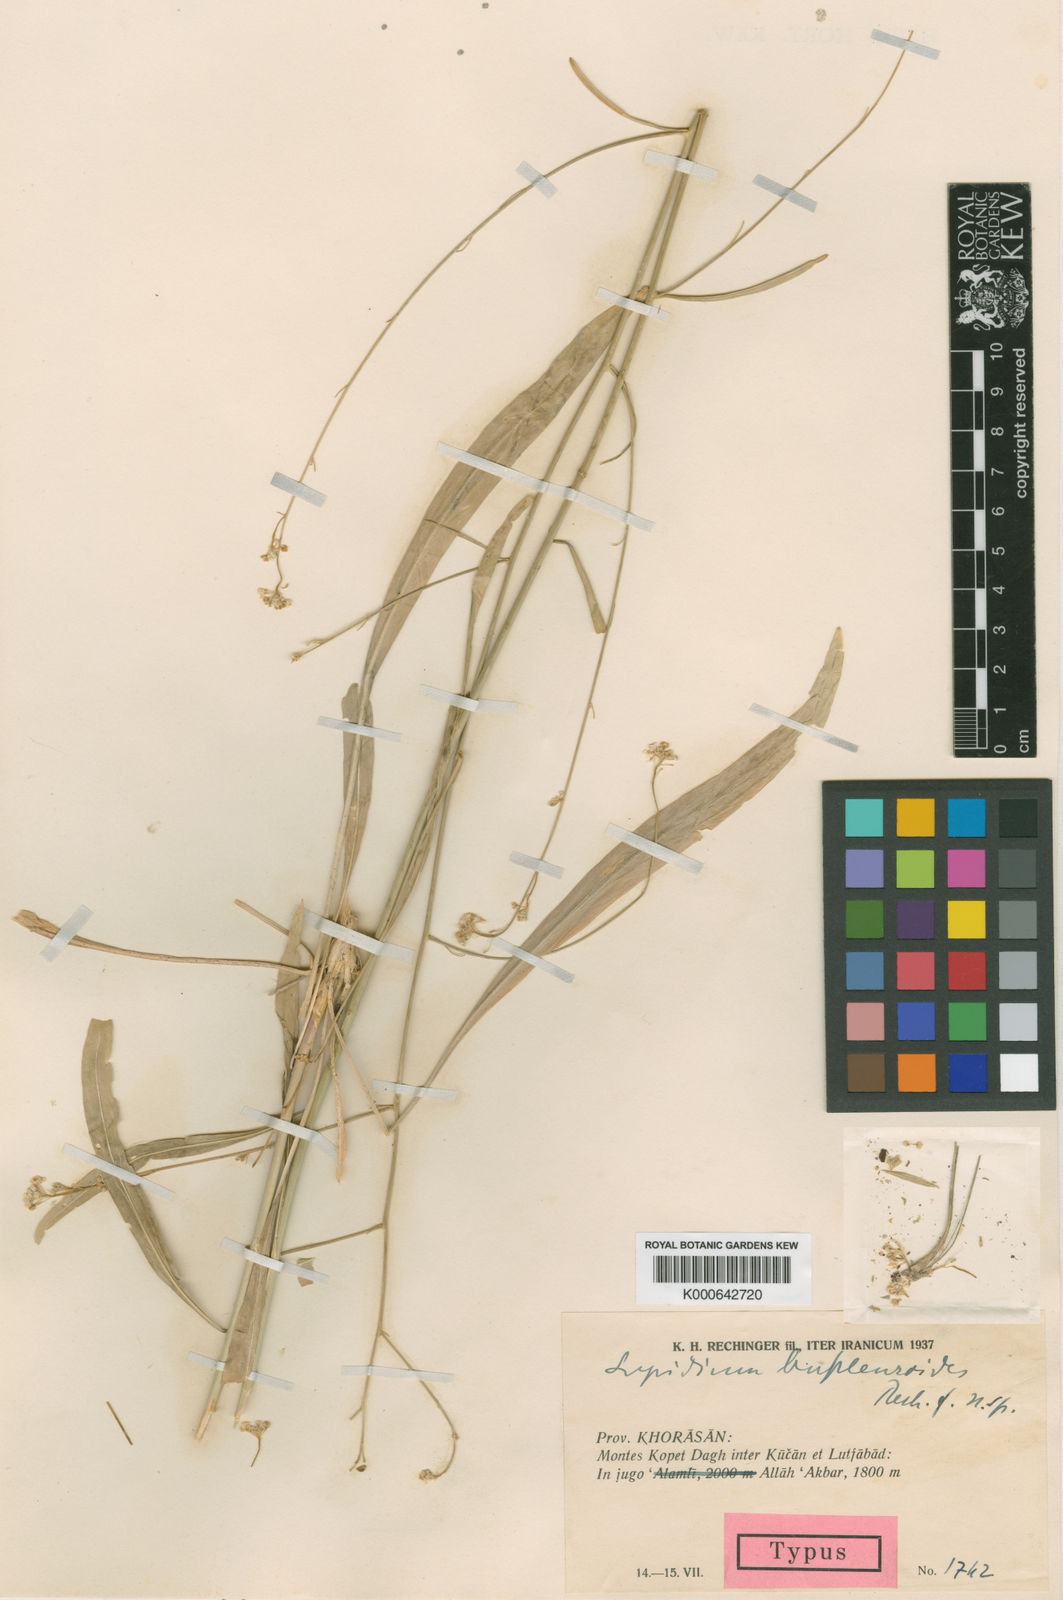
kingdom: Plantae
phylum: Tracheophyta
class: Magnoliopsida
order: Brassicales
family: Brassicaceae
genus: Lepidium
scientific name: Lepidium affghanum
